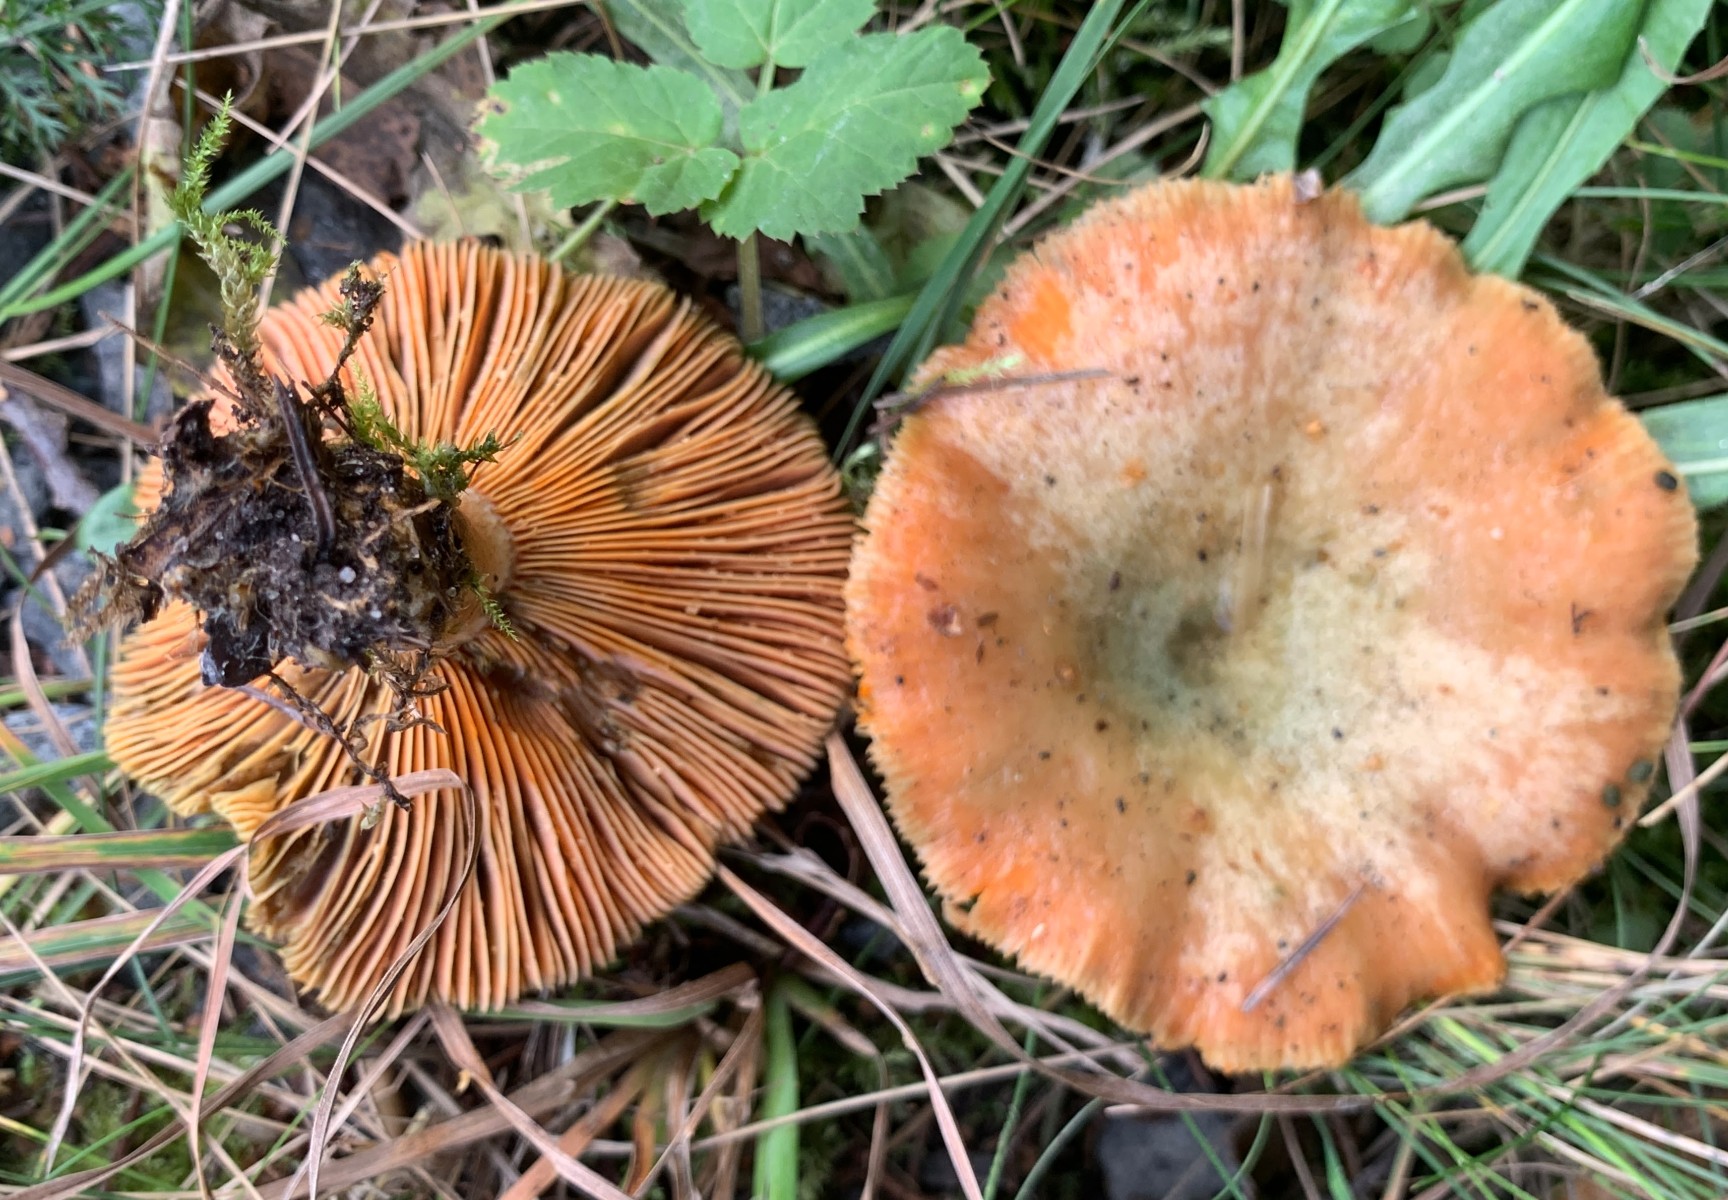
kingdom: Fungi
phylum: Basidiomycota
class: Agaricomycetes
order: Russulales
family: Russulaceae
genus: Lactarius
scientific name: Lactarius deterrimus
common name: gran-mælkehat
